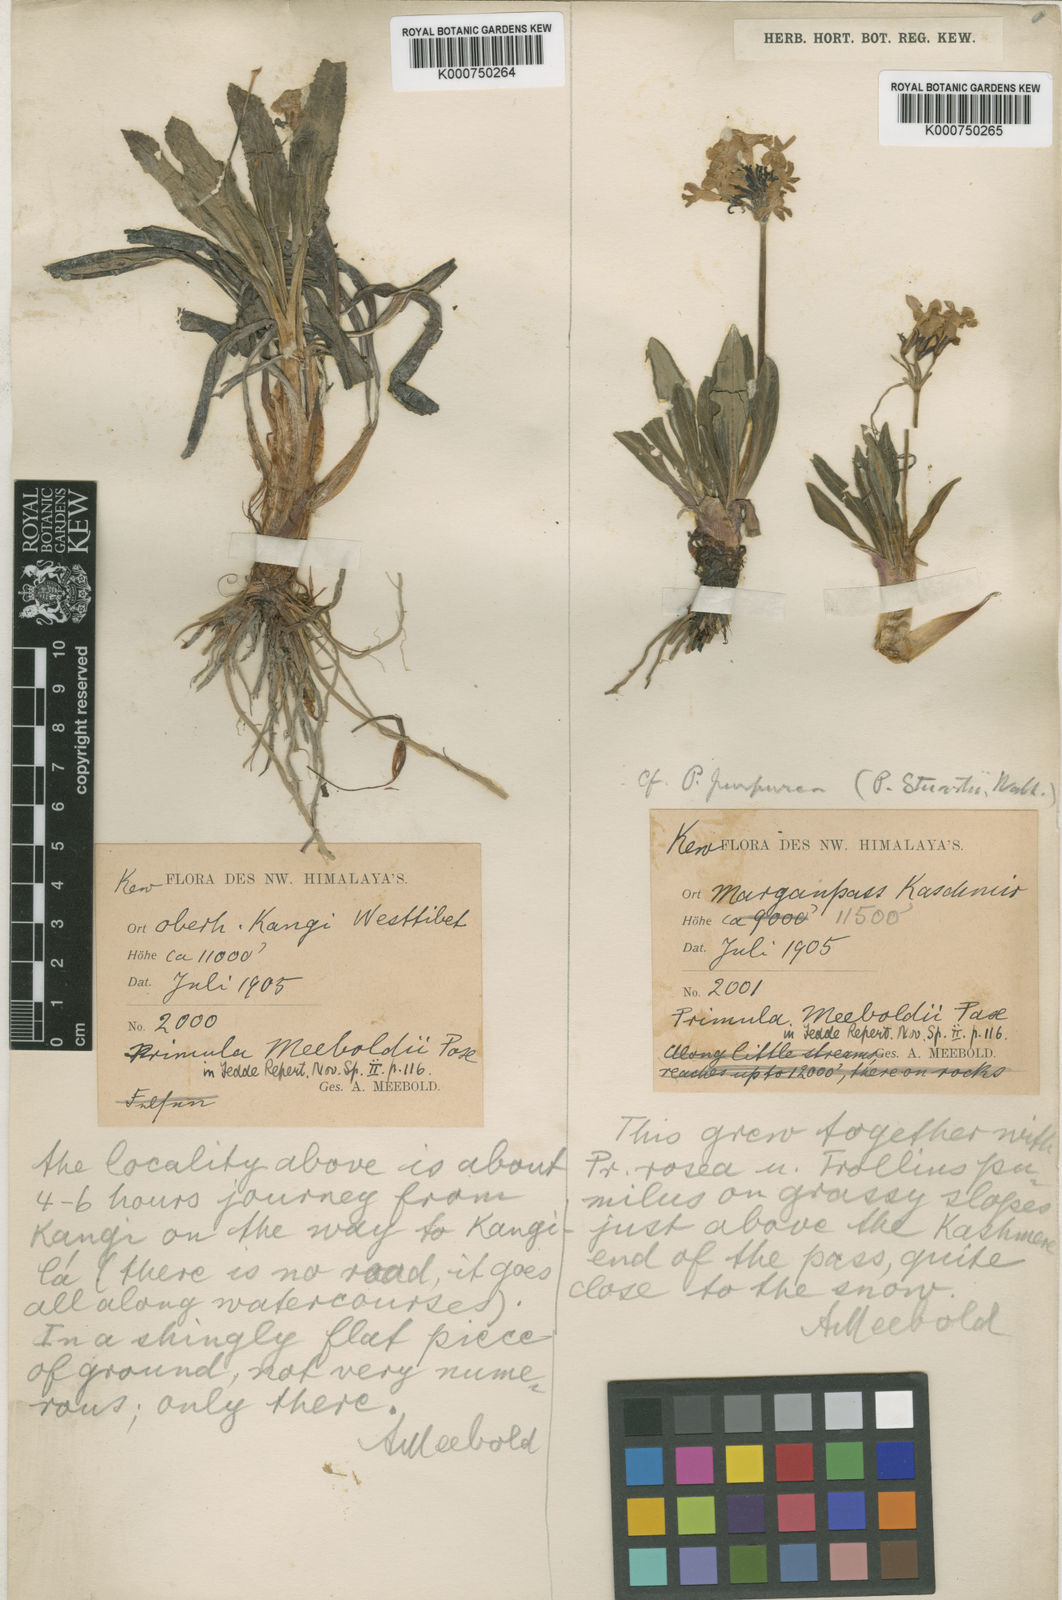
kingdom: Plantae
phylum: Tracheophyta
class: Magnoliopsida
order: Ericales
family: Primulaceae
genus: Primula
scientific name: Primula macrophylla
